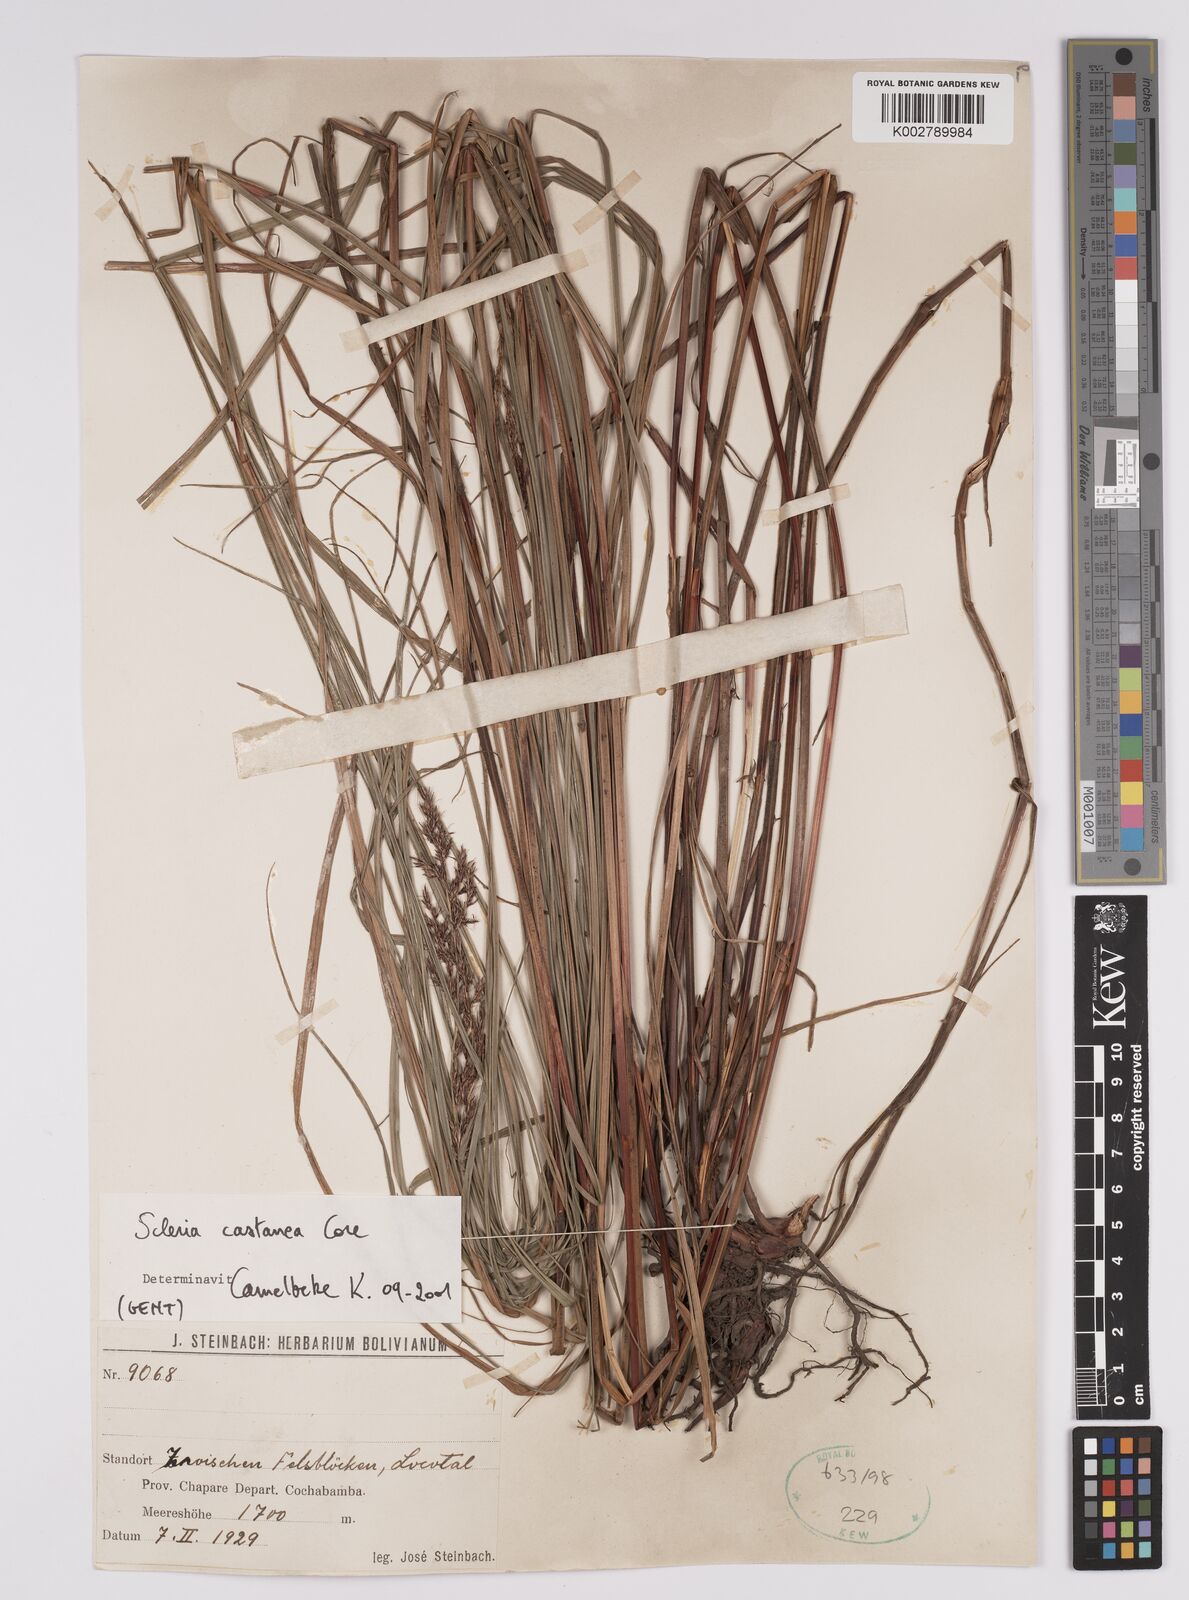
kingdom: Plantae
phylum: Tracheophyta
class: Liliopsida
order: Poales
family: Cyperaceae
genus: Scleria
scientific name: Scleria
